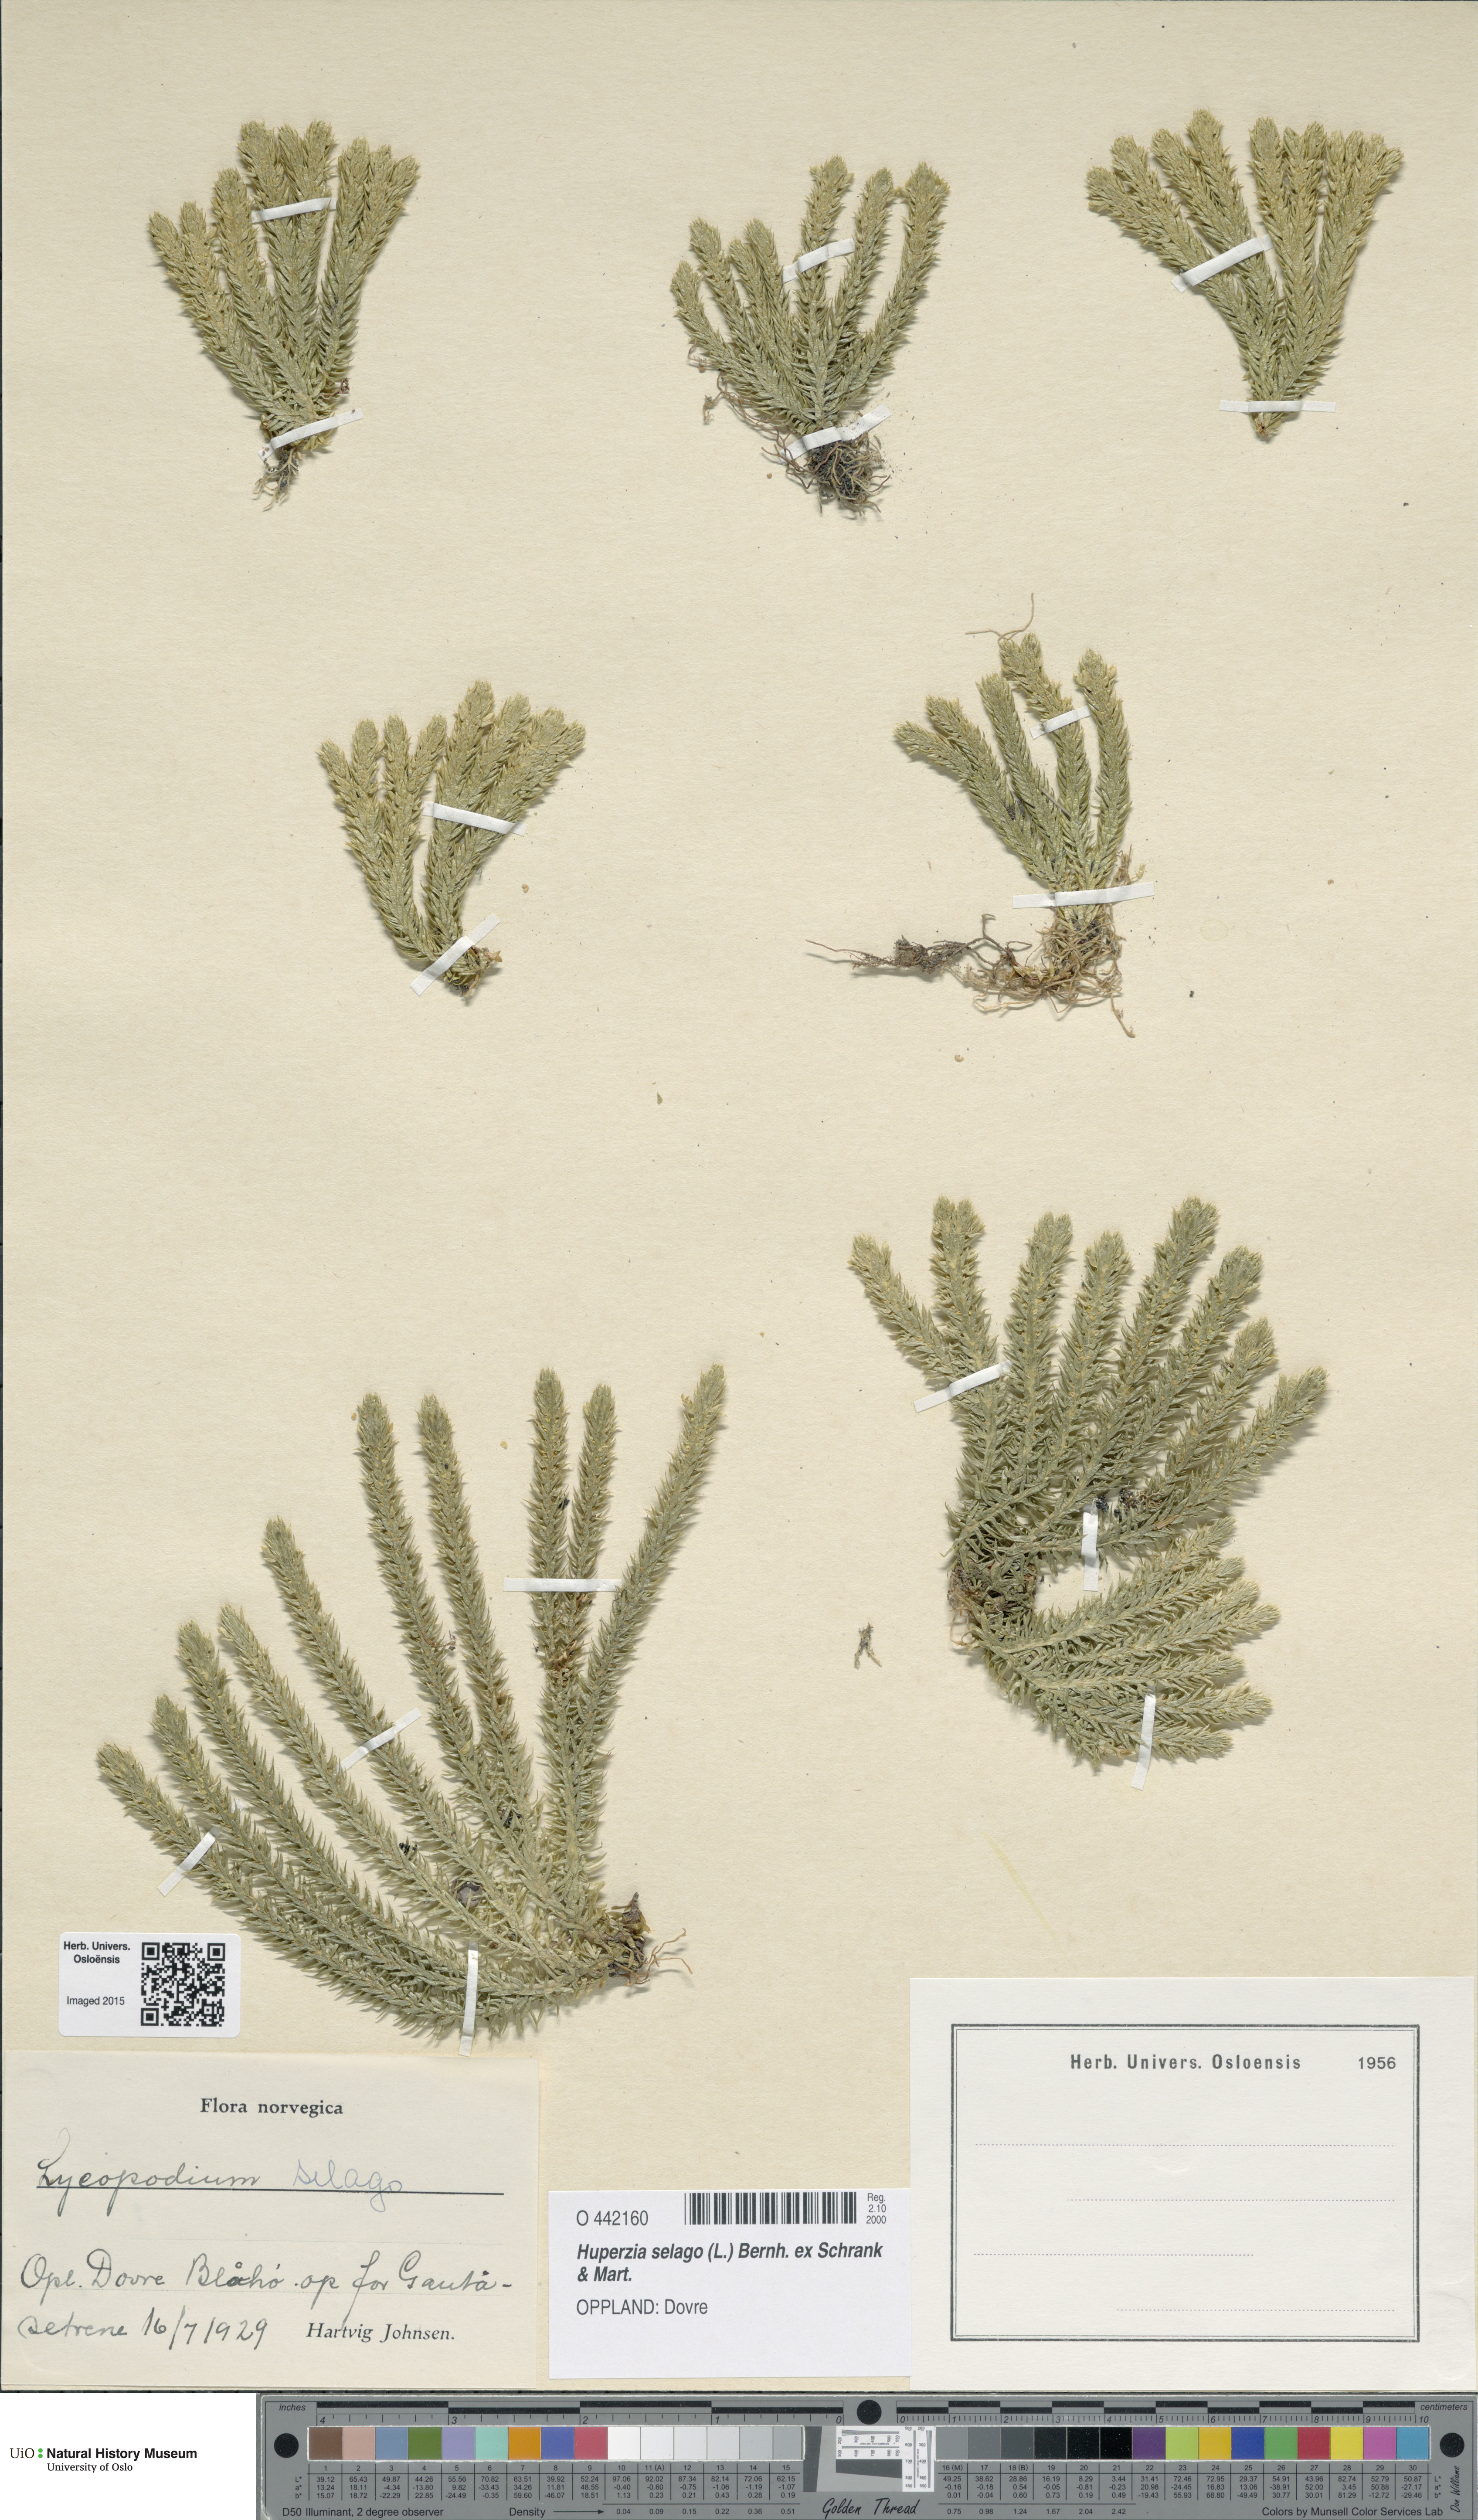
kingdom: Plantae
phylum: Tracheophyta
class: Lycopodiopsida
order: Lycopodiales
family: Lycopodiaceae
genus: Huperzia
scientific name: Huperzia selago
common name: Northern firmoss
